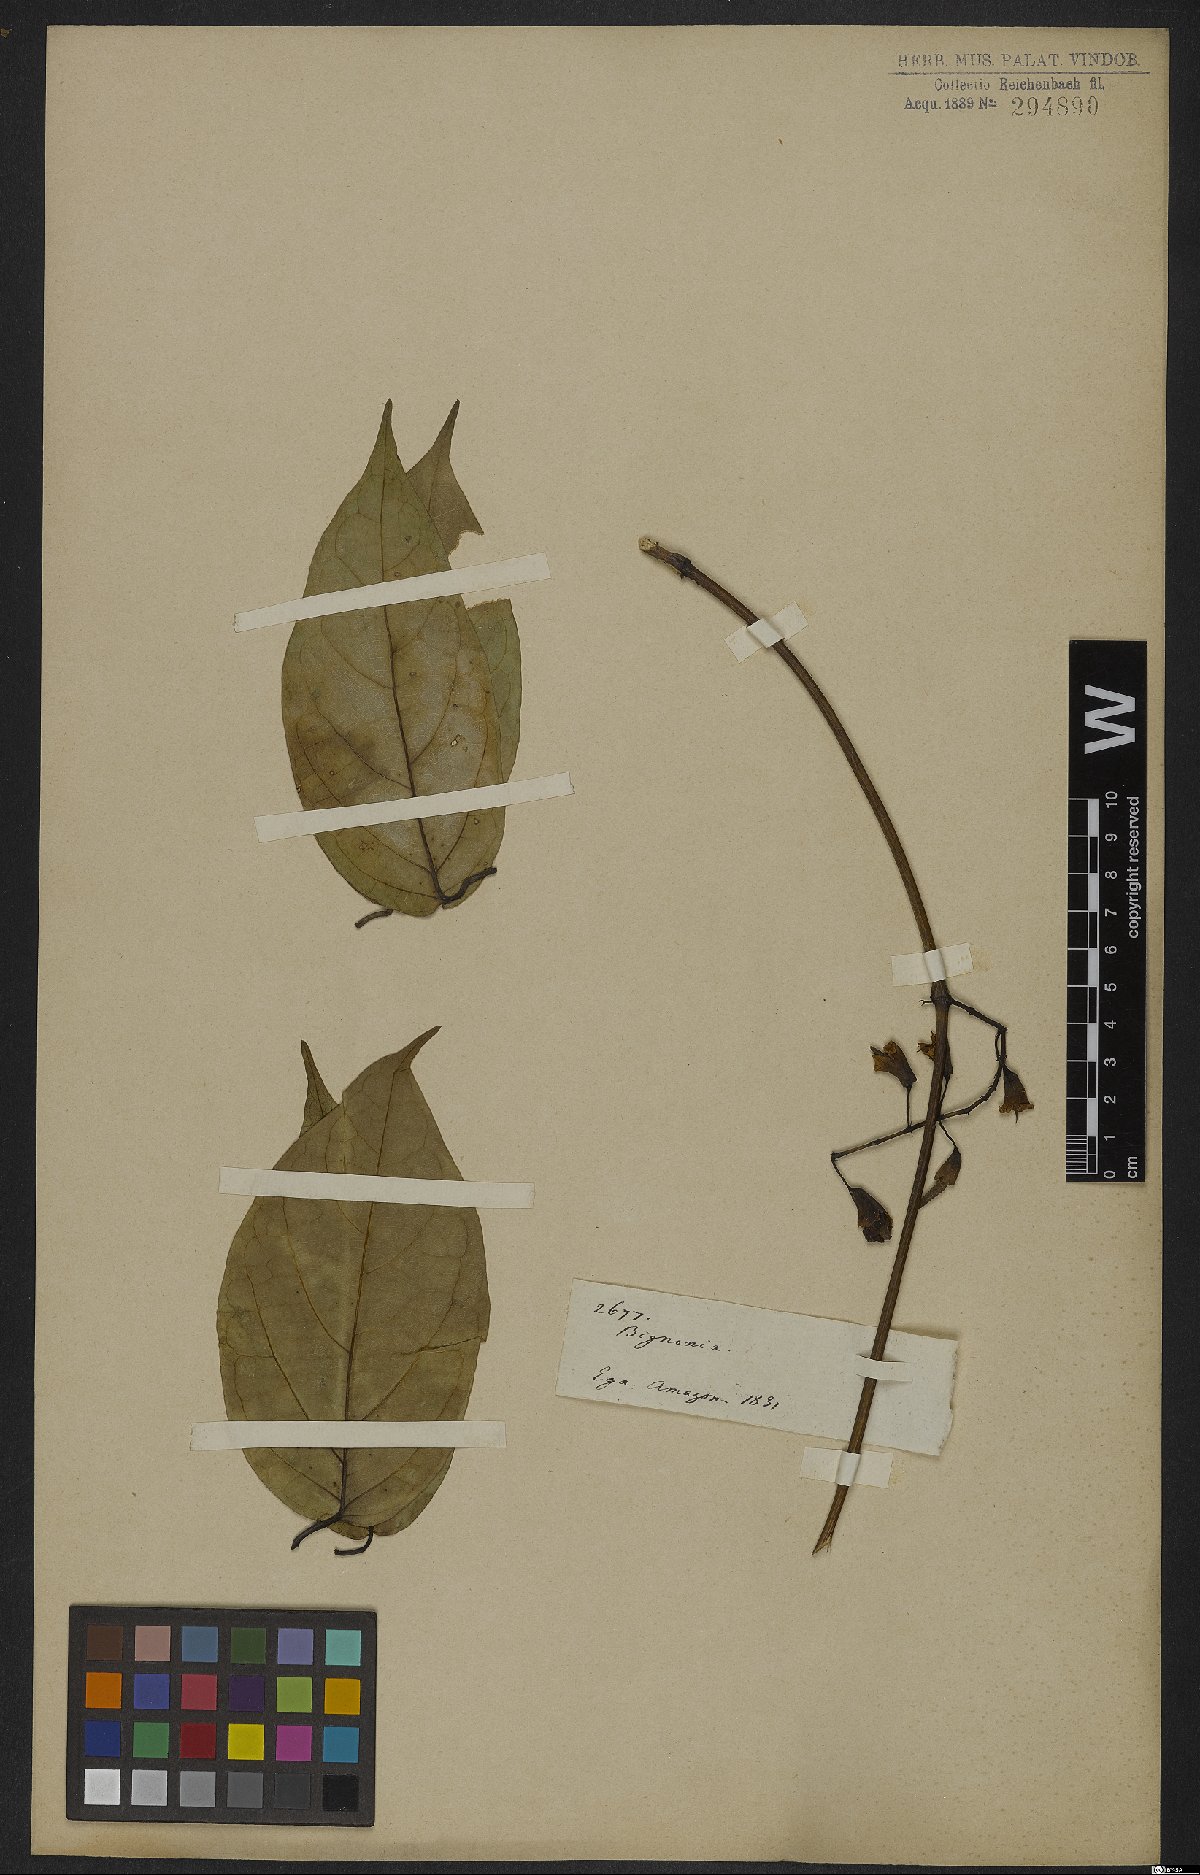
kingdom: Plantae
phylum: Tracheophyta
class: Magnoliopsida
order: Lamiales
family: Bignoniaceae
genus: Anemopaegma
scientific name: Anemopaegma floridum
